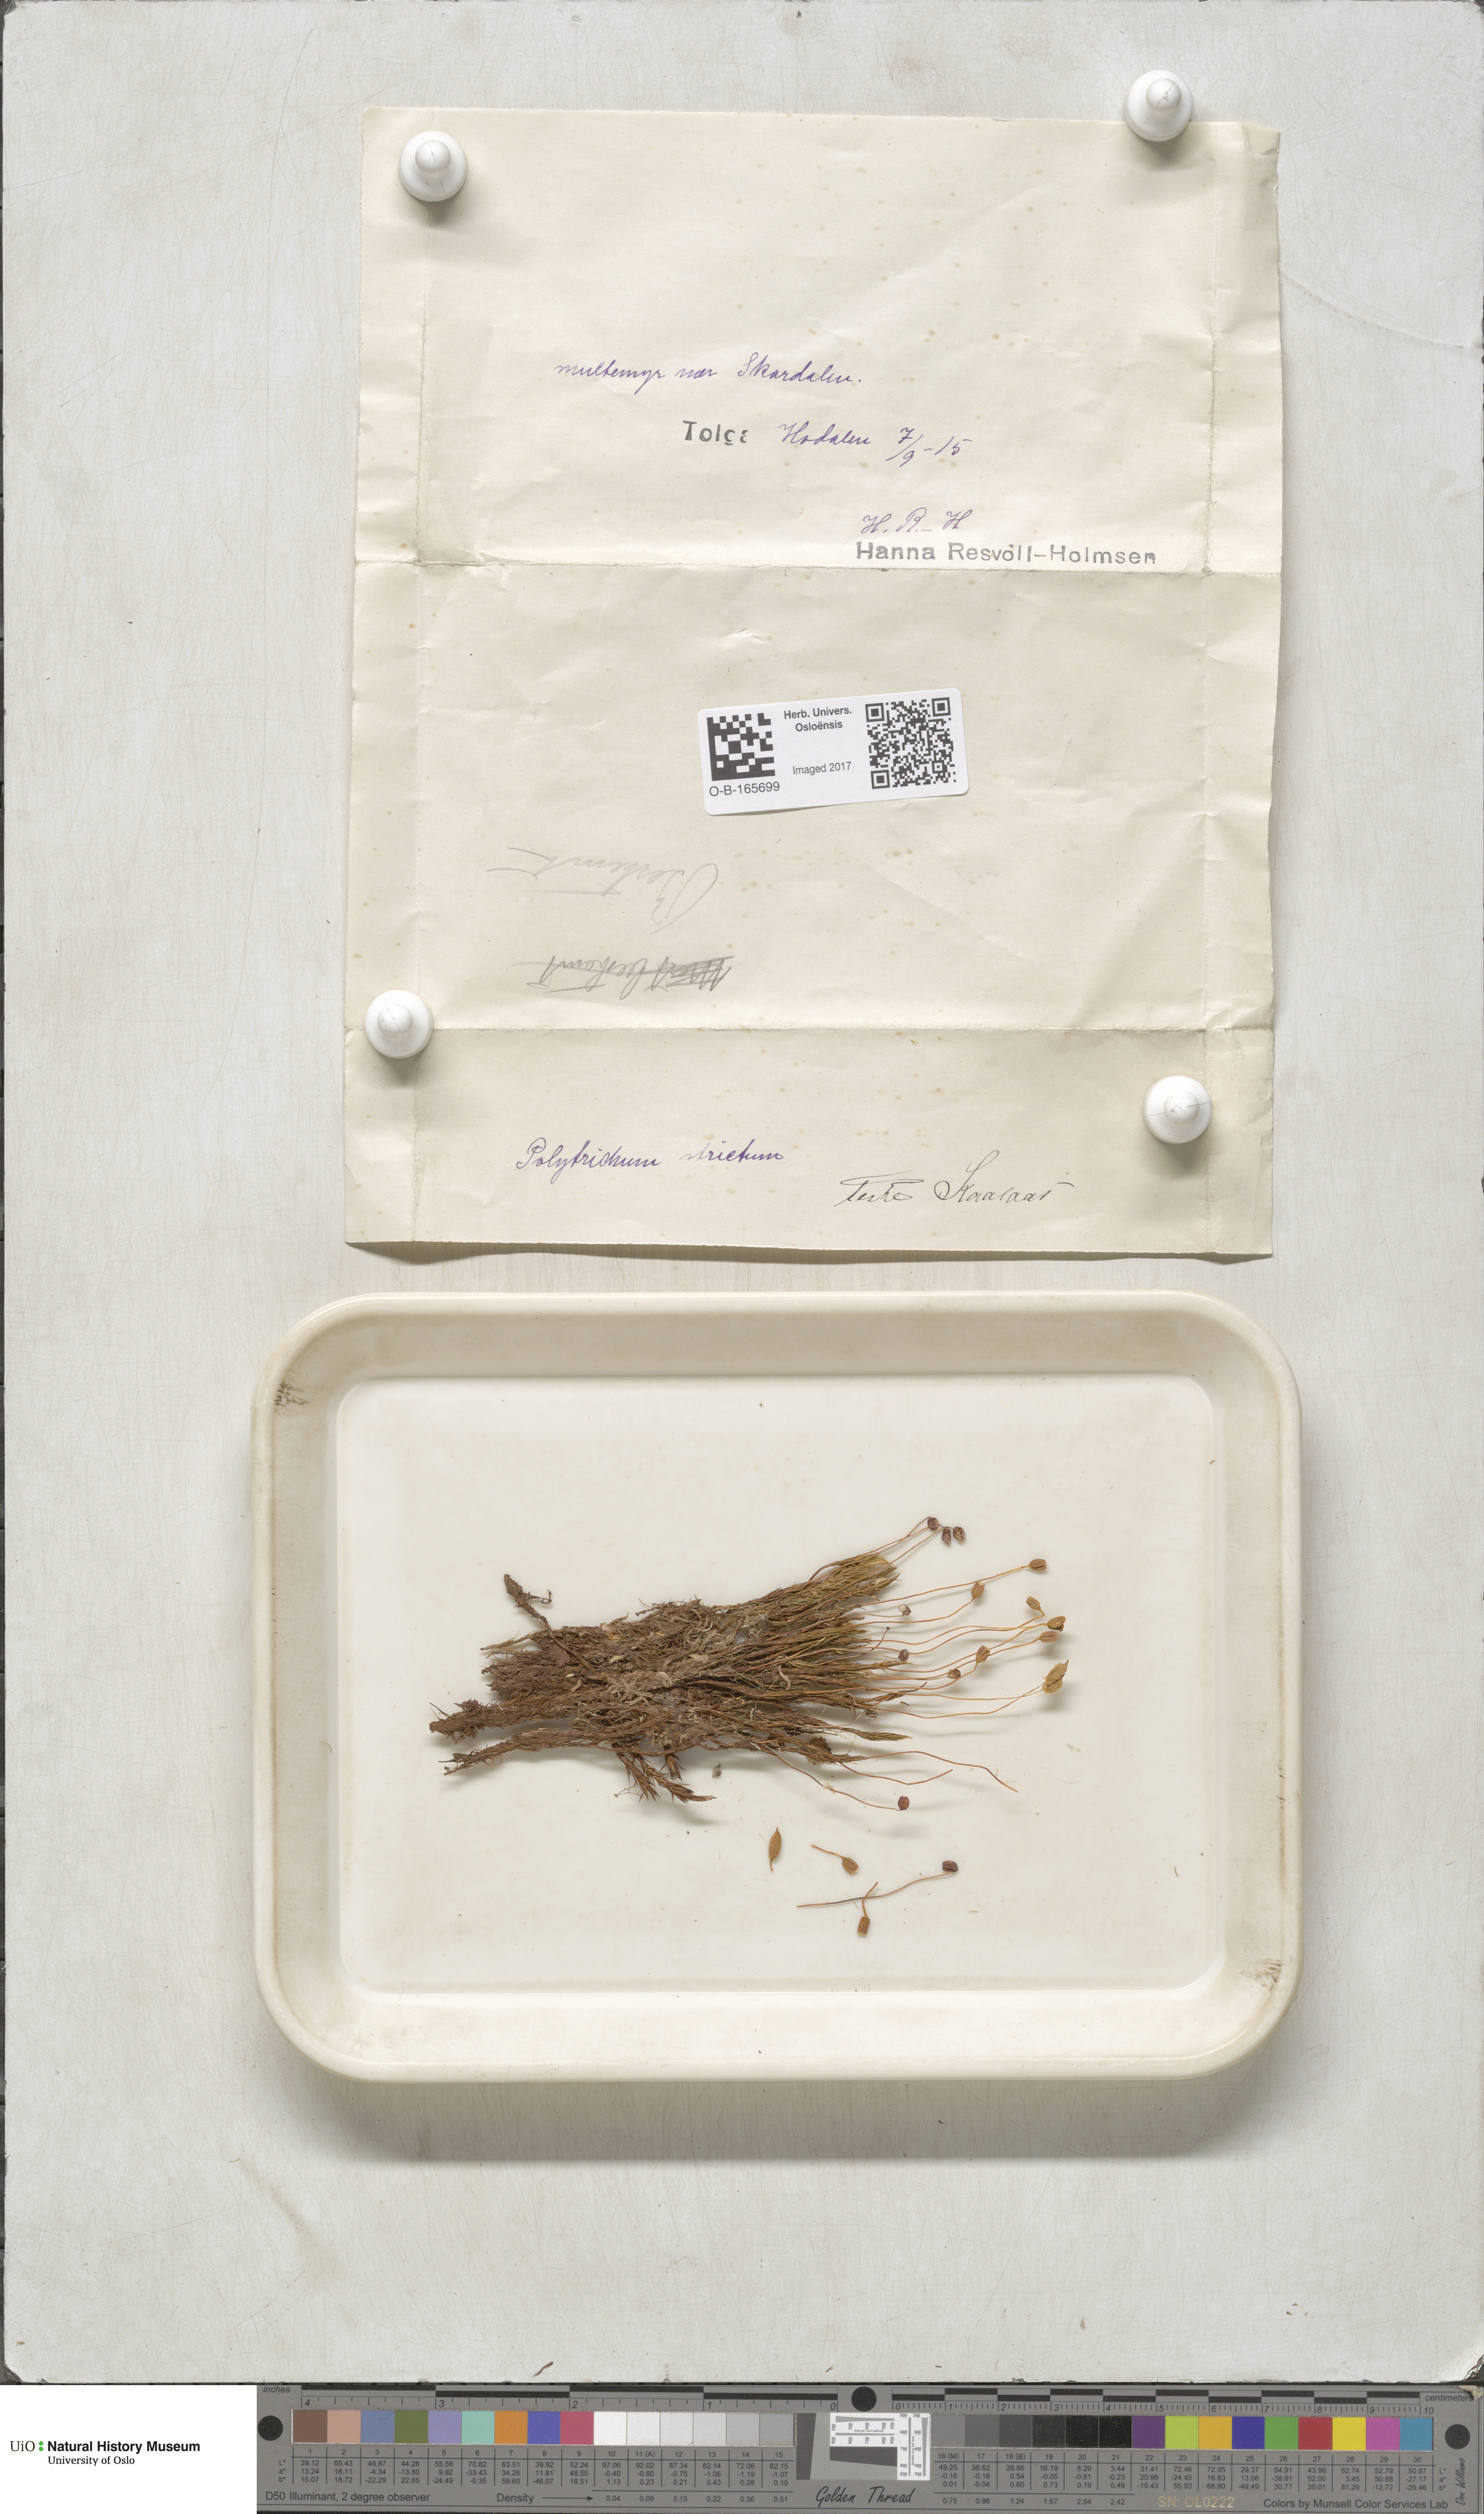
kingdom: Plantae
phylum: Bryophyta
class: Polytrichopsida
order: Polytrichales
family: Polytrichaceae
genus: Polytrichum
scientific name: Polytrichum strictum
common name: Bog haircap moss
